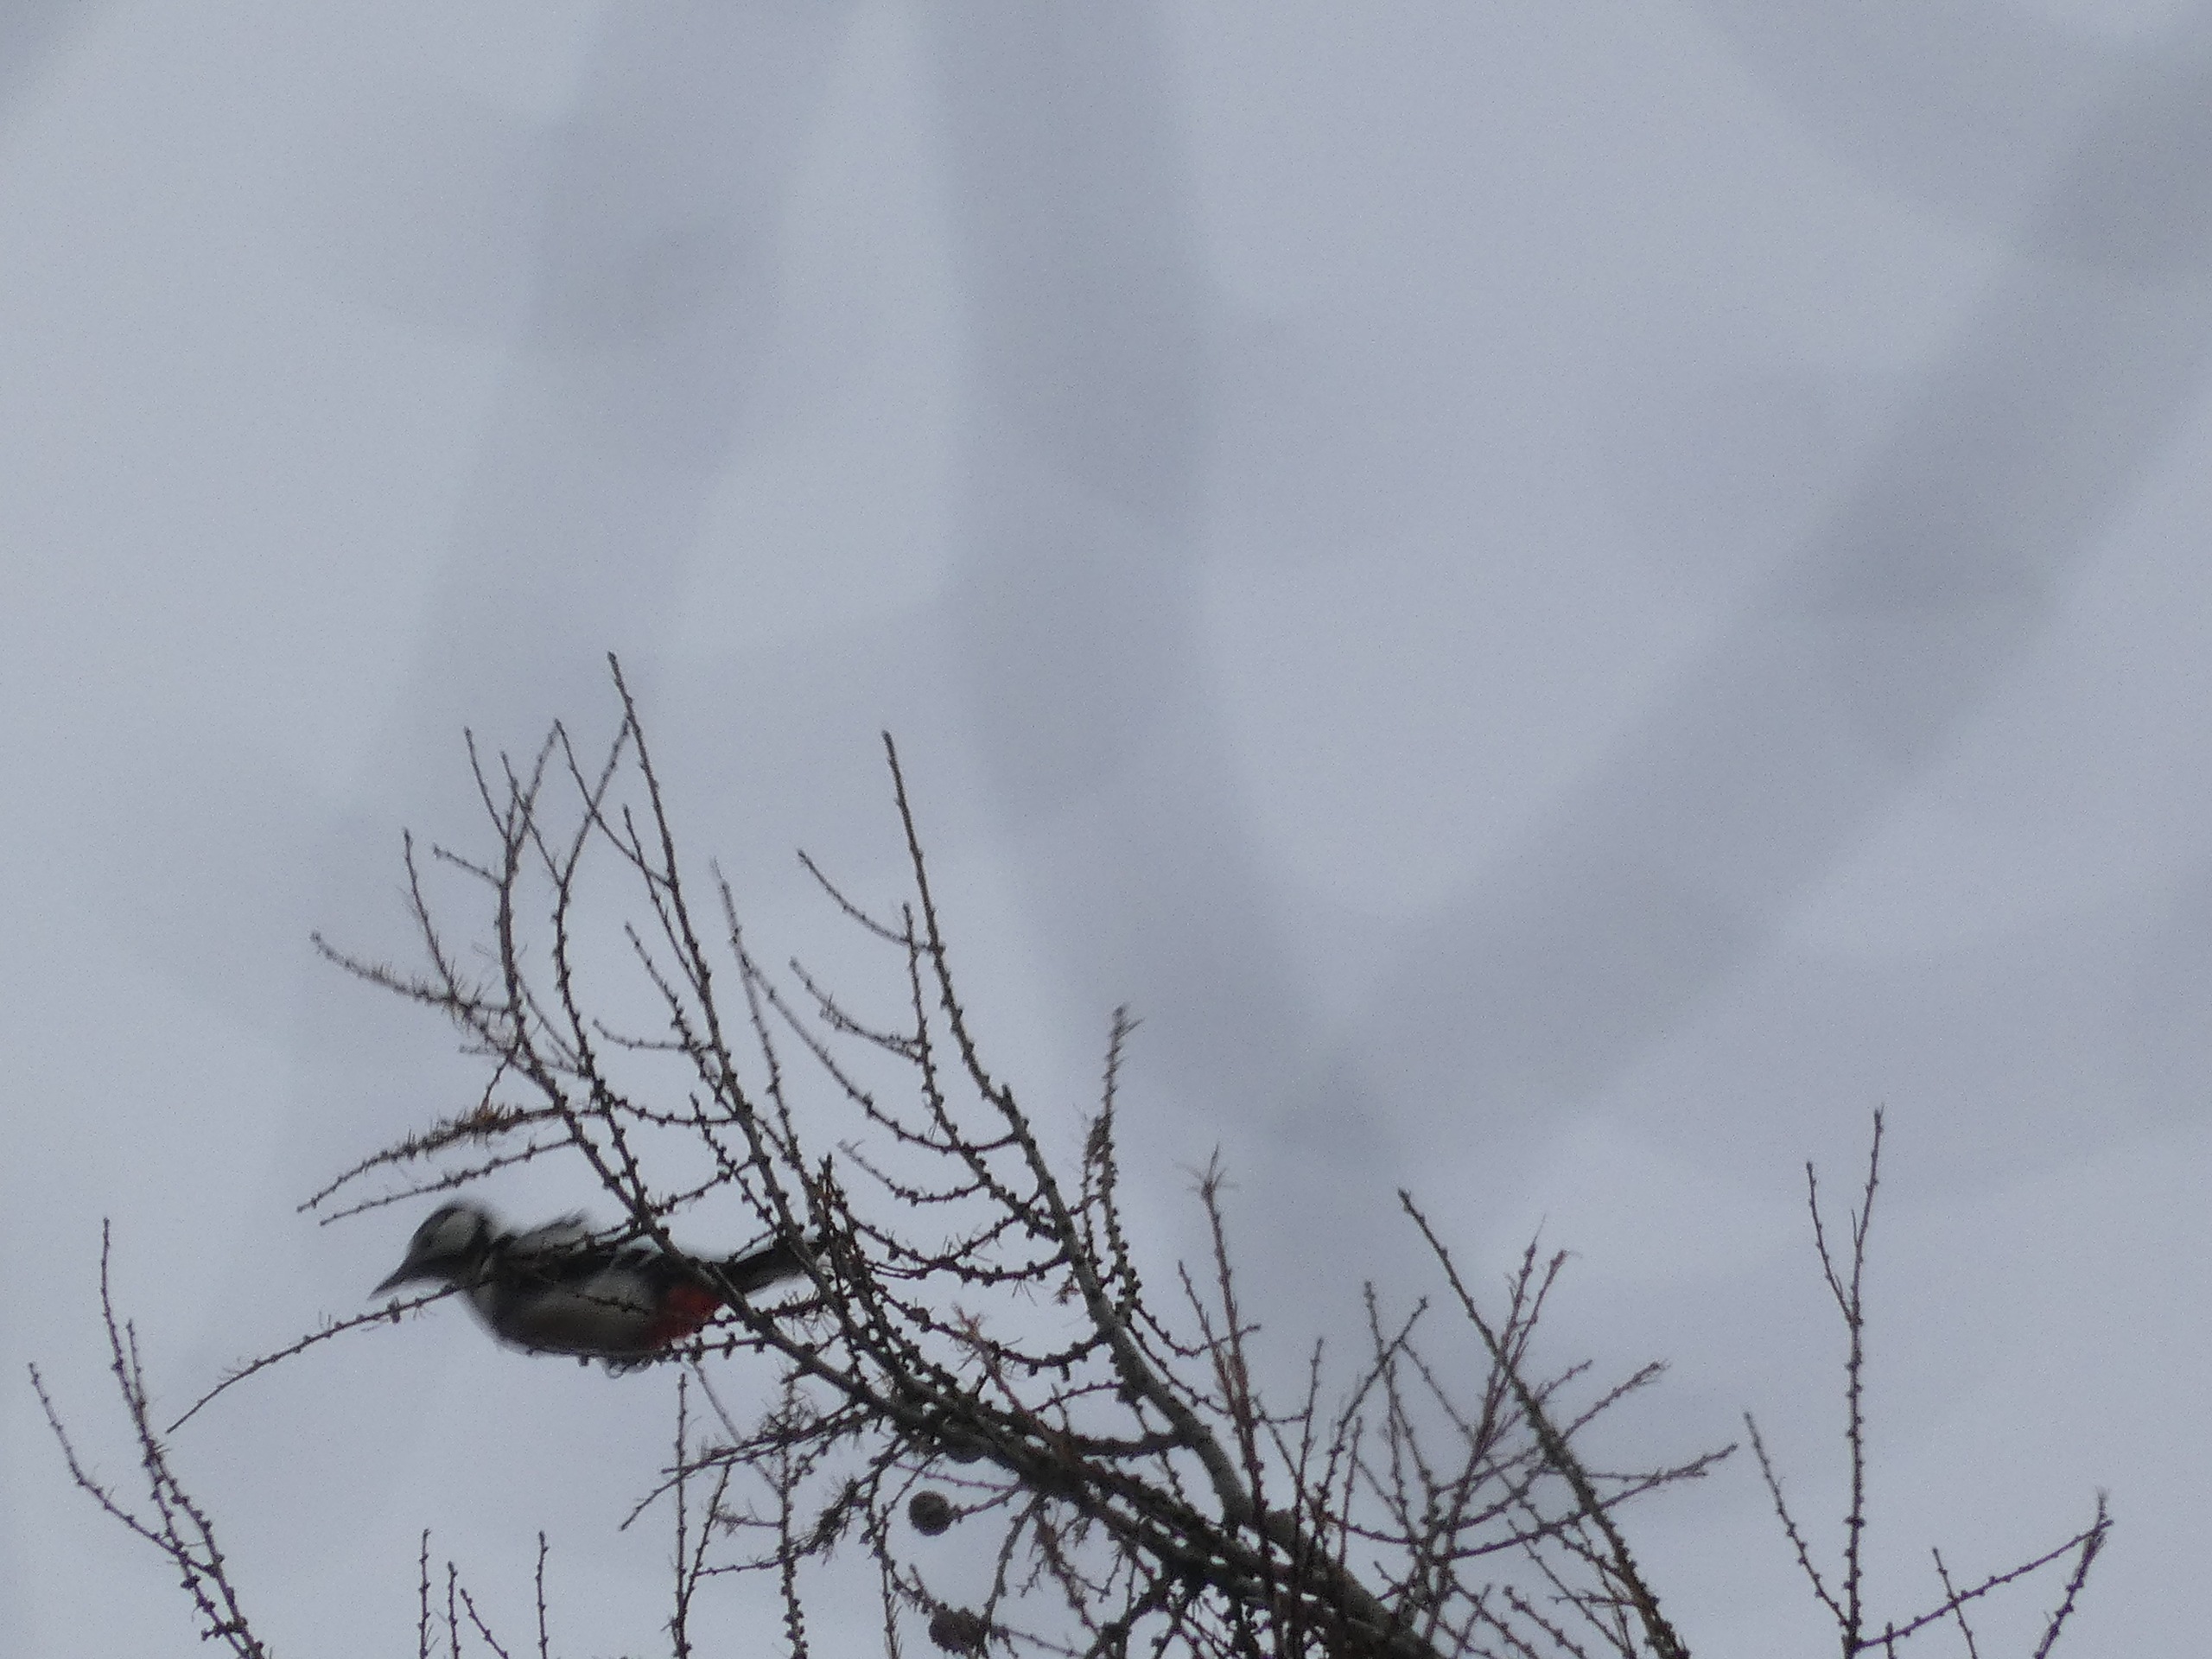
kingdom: Animalia
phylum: Chordata
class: Aves
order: Piciformes
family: Picidae
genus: Dendrocopos
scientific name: Dendrocopos major
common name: Stor flagspætte
